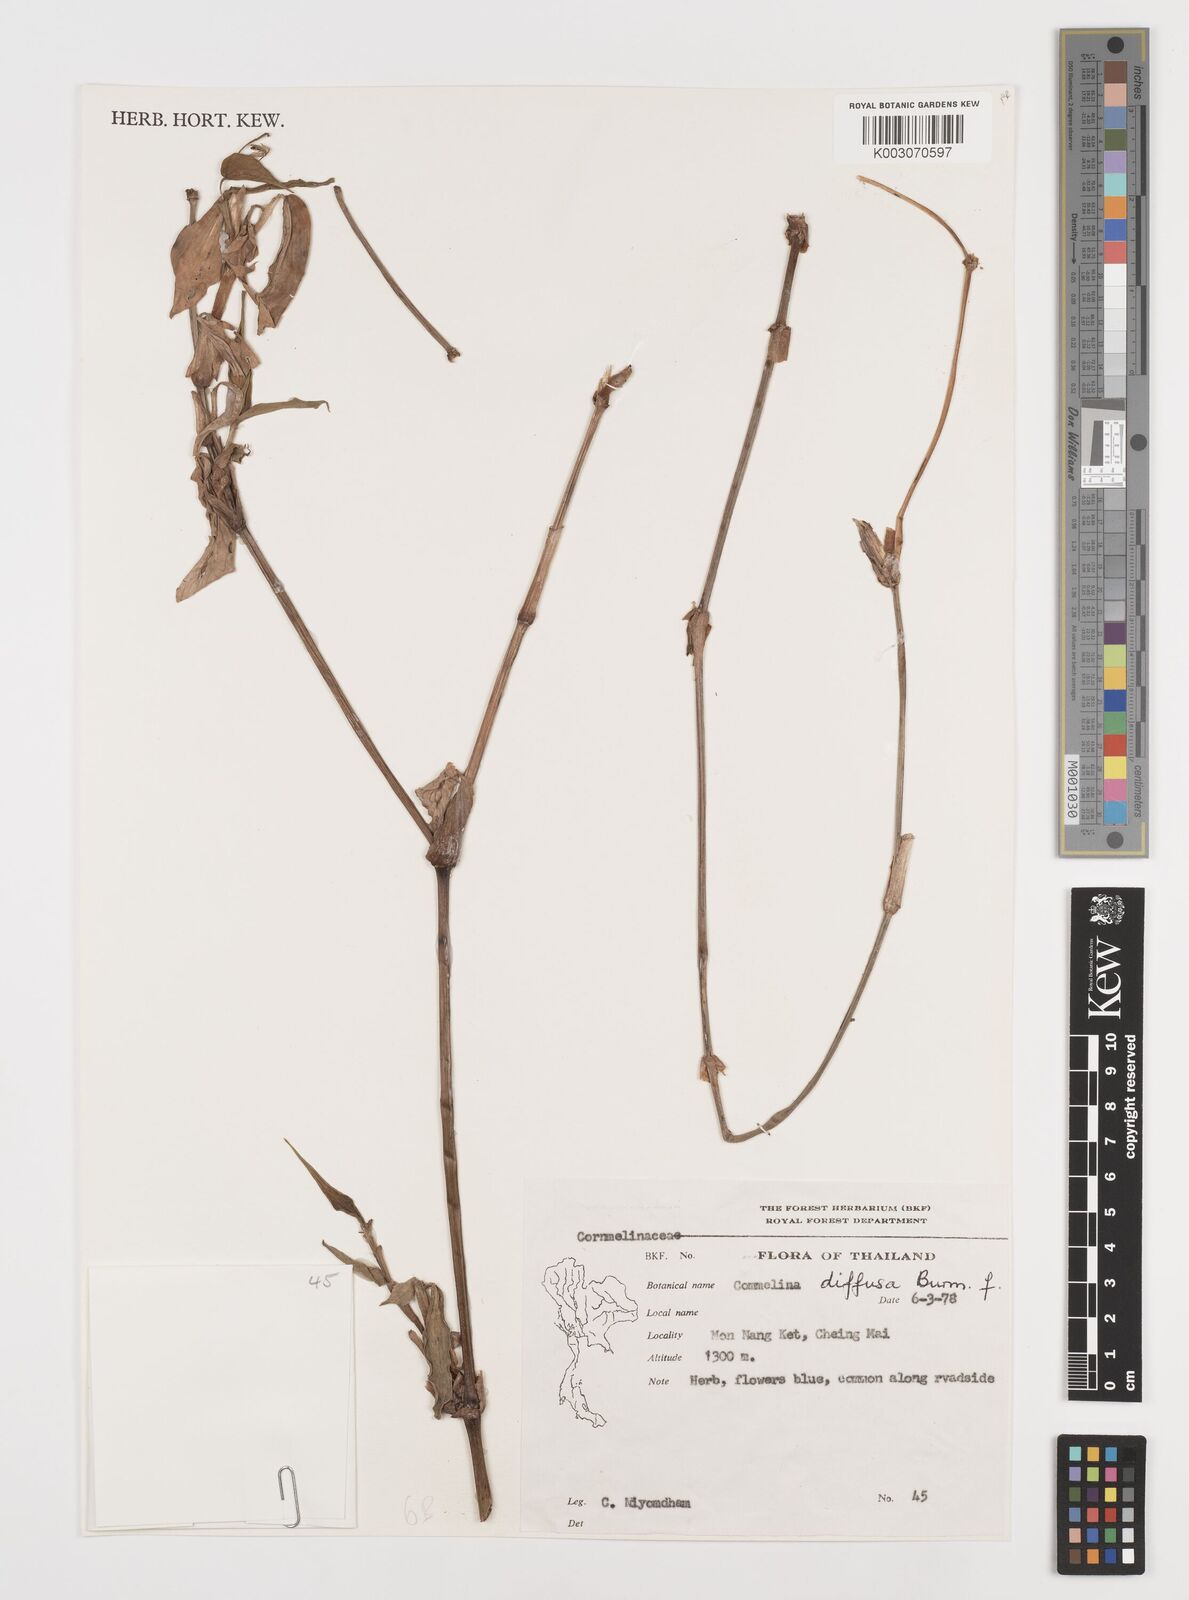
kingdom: Plantae
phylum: Tracheophyta
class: Liliopsida
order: Commelinales
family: Commelinaceae
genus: Commelina
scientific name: Commelina clavata
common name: Willow leaved dayflower
